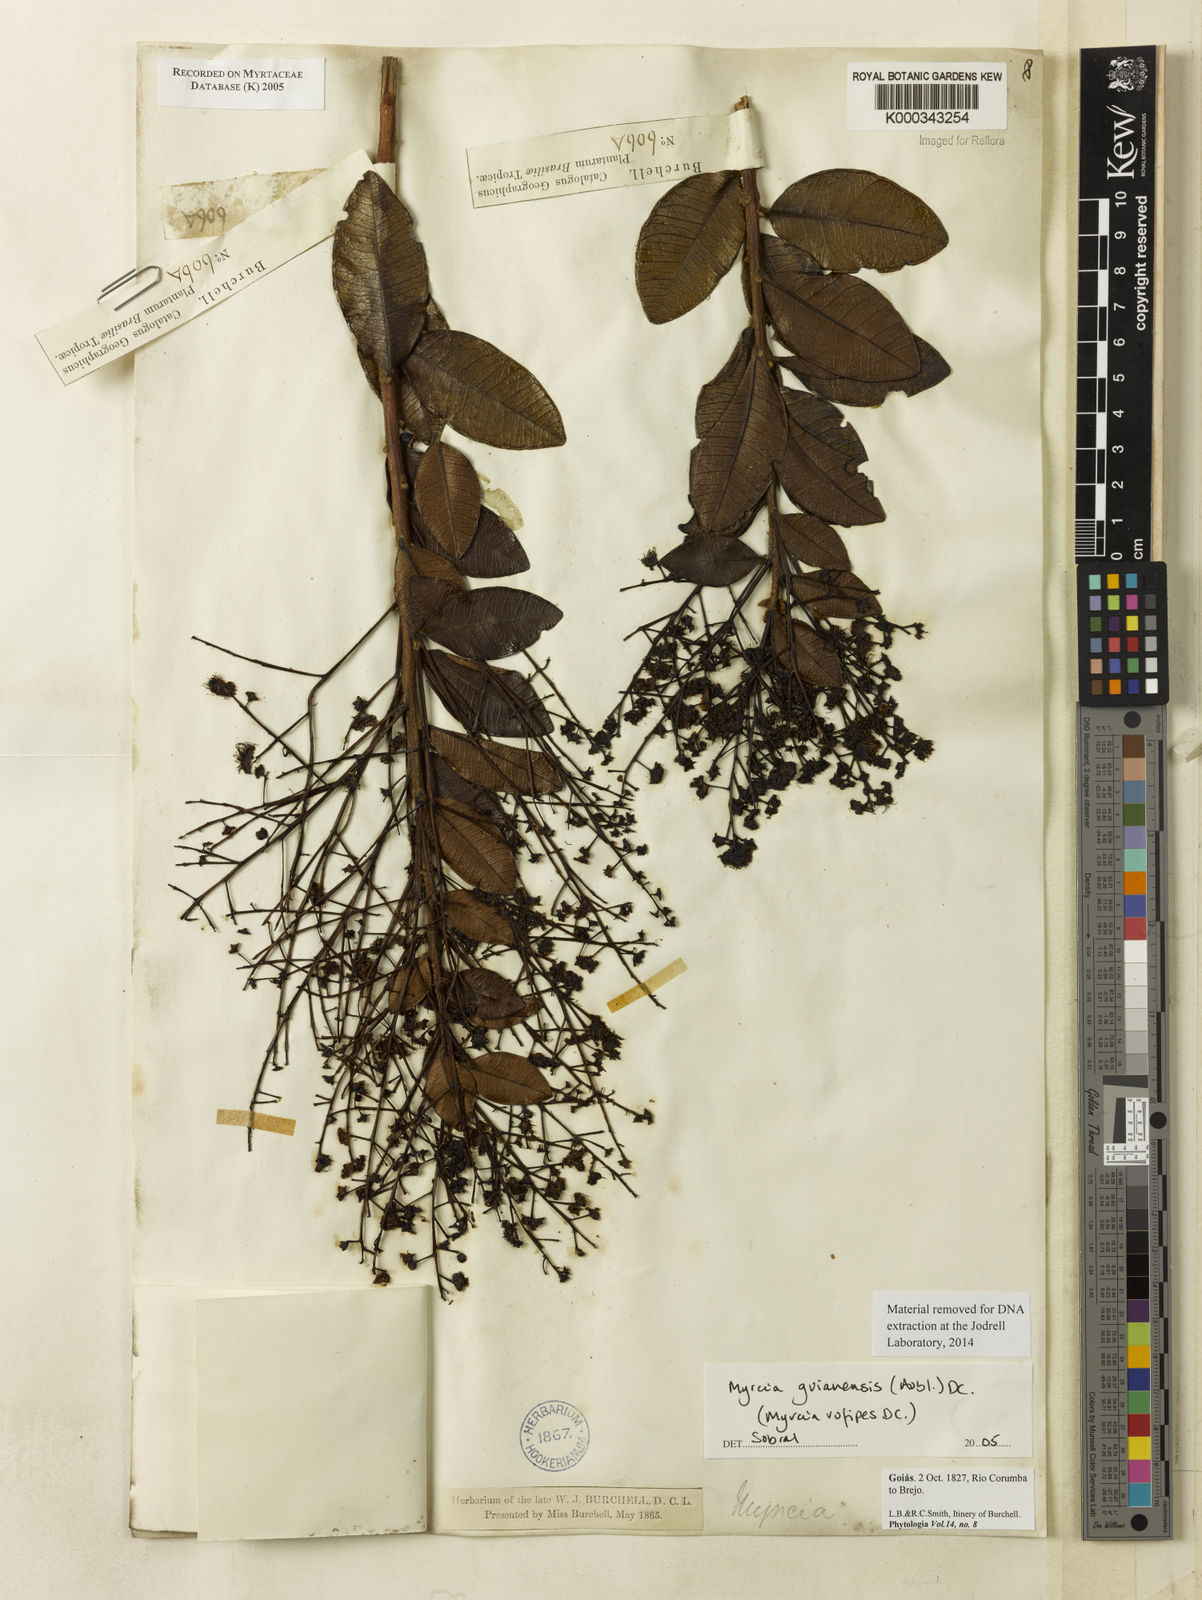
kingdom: Plantae
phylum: Tracheophyta
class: Magnoliopsida
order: Myrtales
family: Myrtaceae
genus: Myrcia
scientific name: Myrcia guianensis
